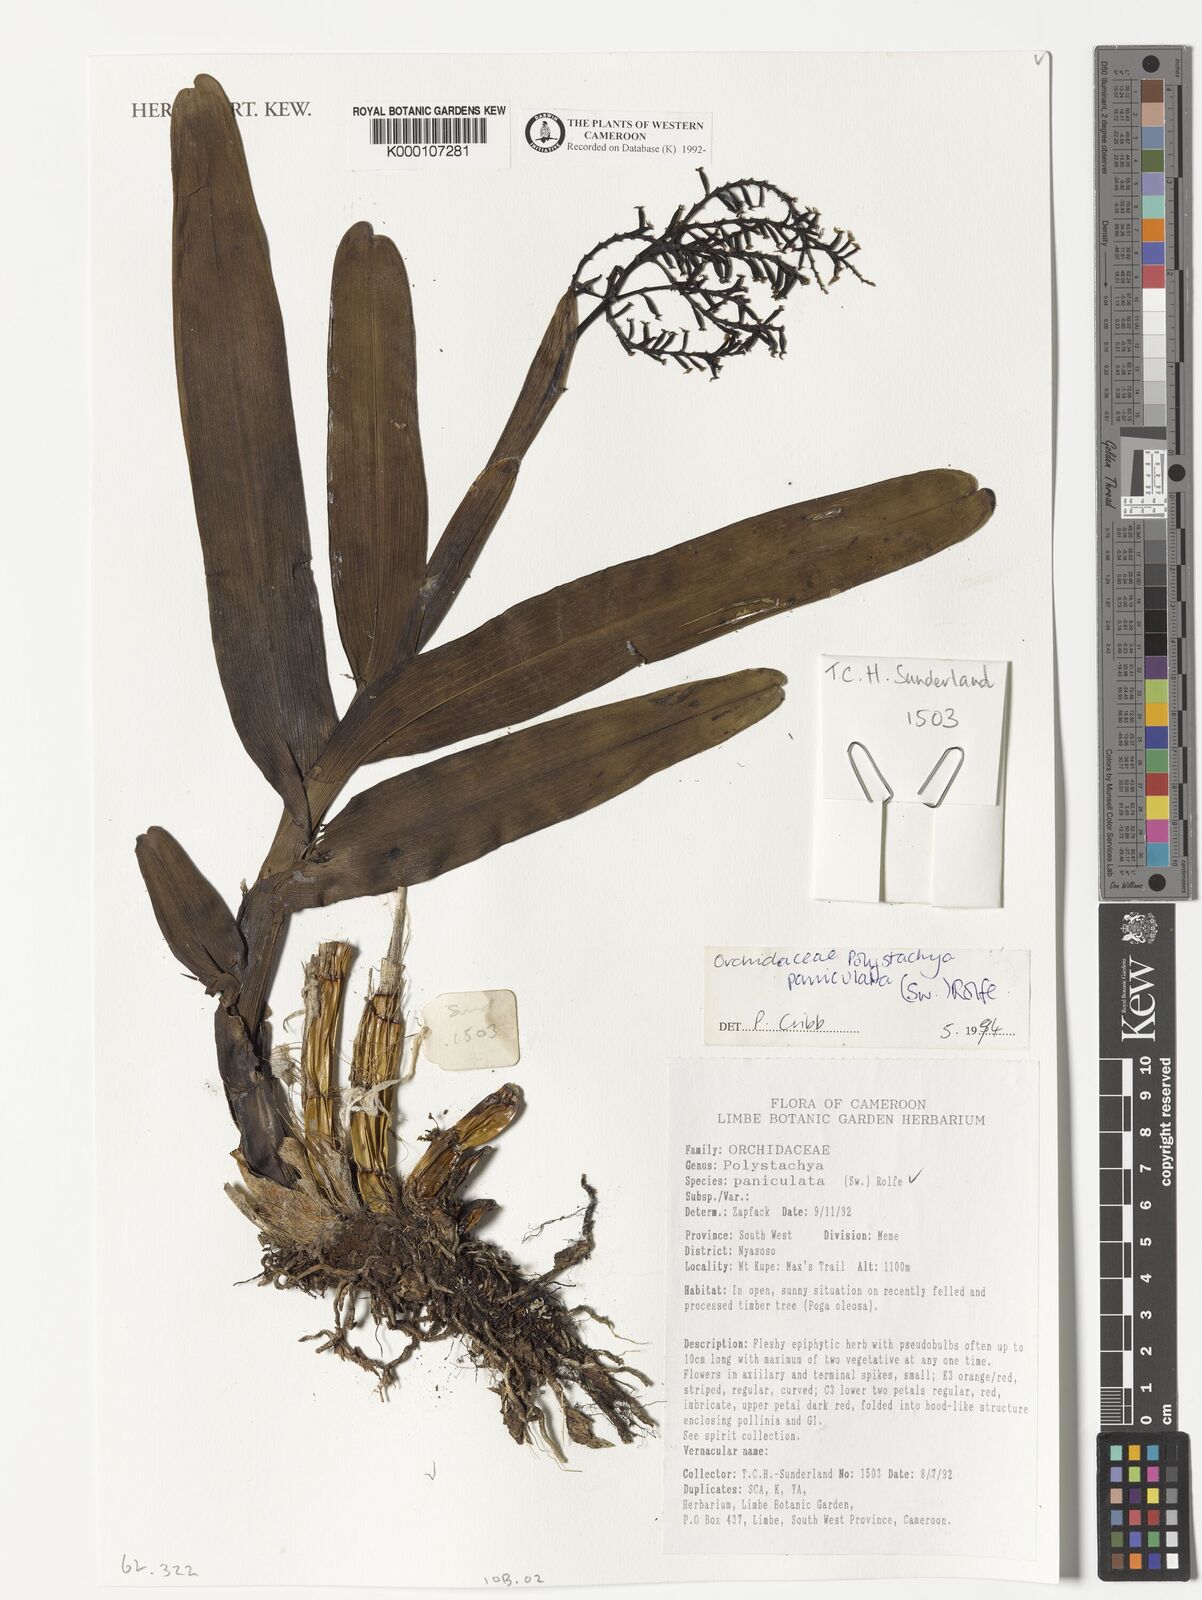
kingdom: Plantae
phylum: Tracheophyta
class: Liliopsida
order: Asparagales
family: Orchidaceae
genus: Polystachya
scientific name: Polystachya paniculata
